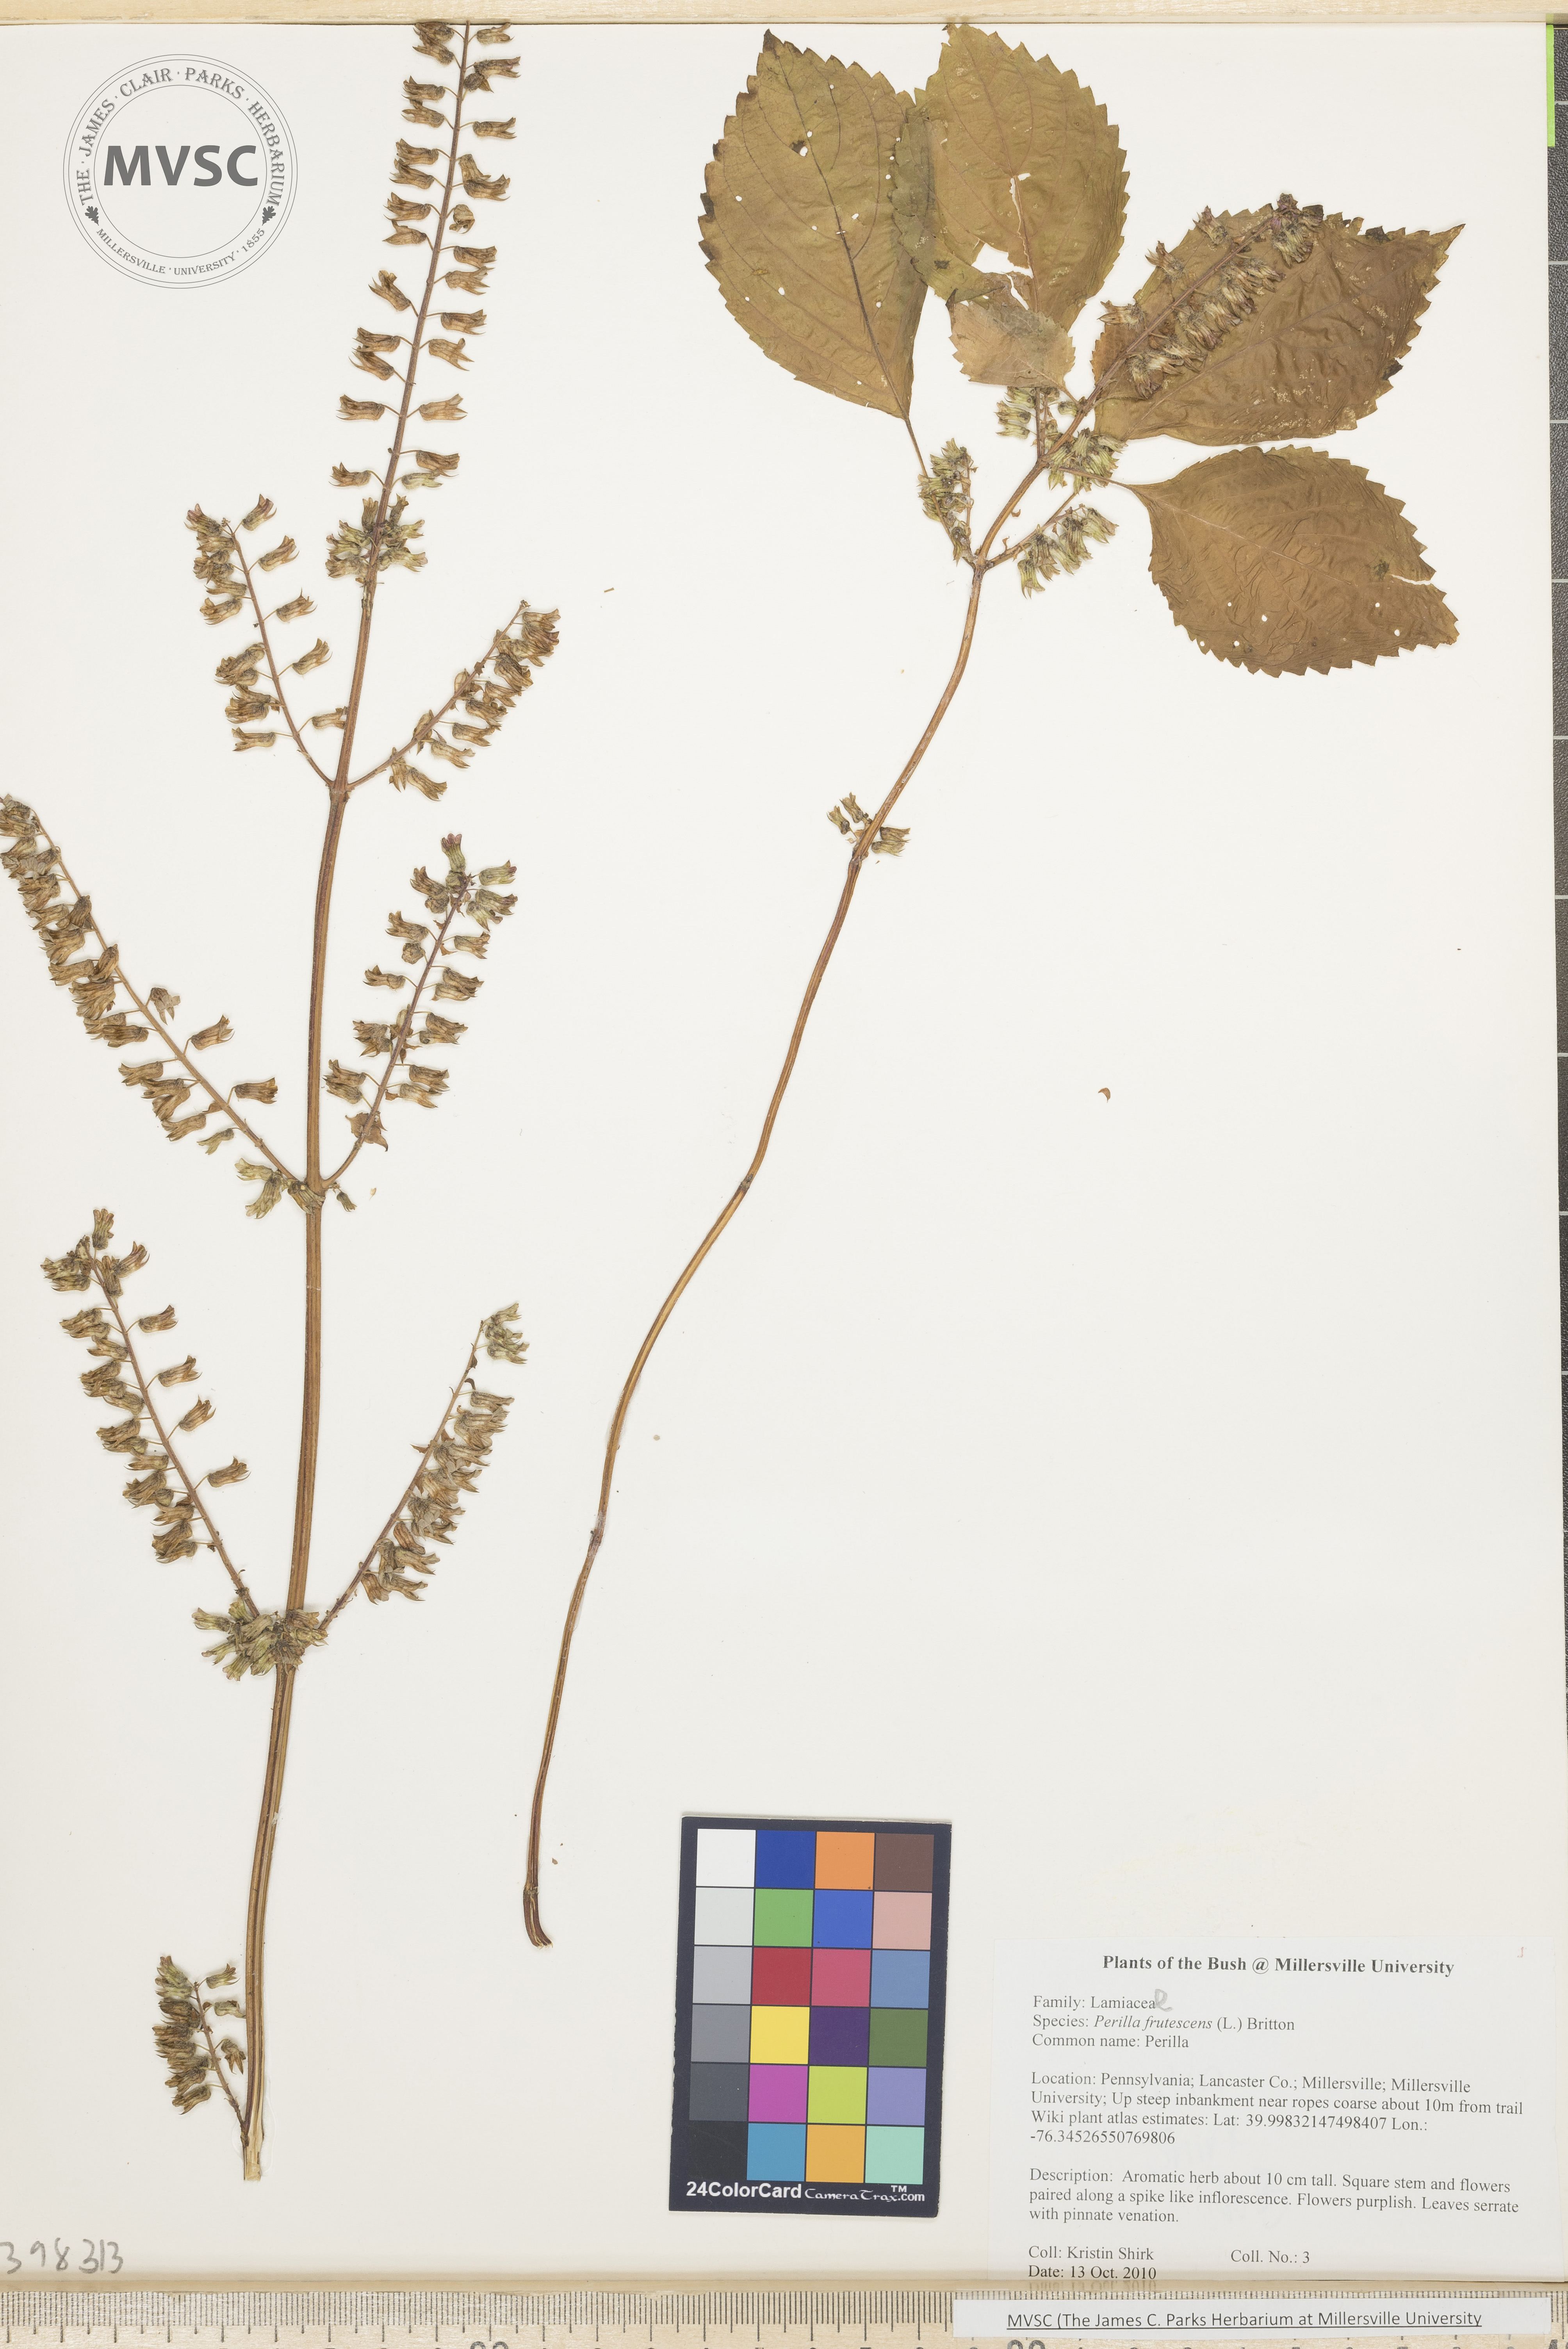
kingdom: Plantae
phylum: Tracheophyta
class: Magnoliopsida
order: Lamiales
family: Lamiaceae
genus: Perilla
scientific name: Perilla frutescens
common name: Perilla
